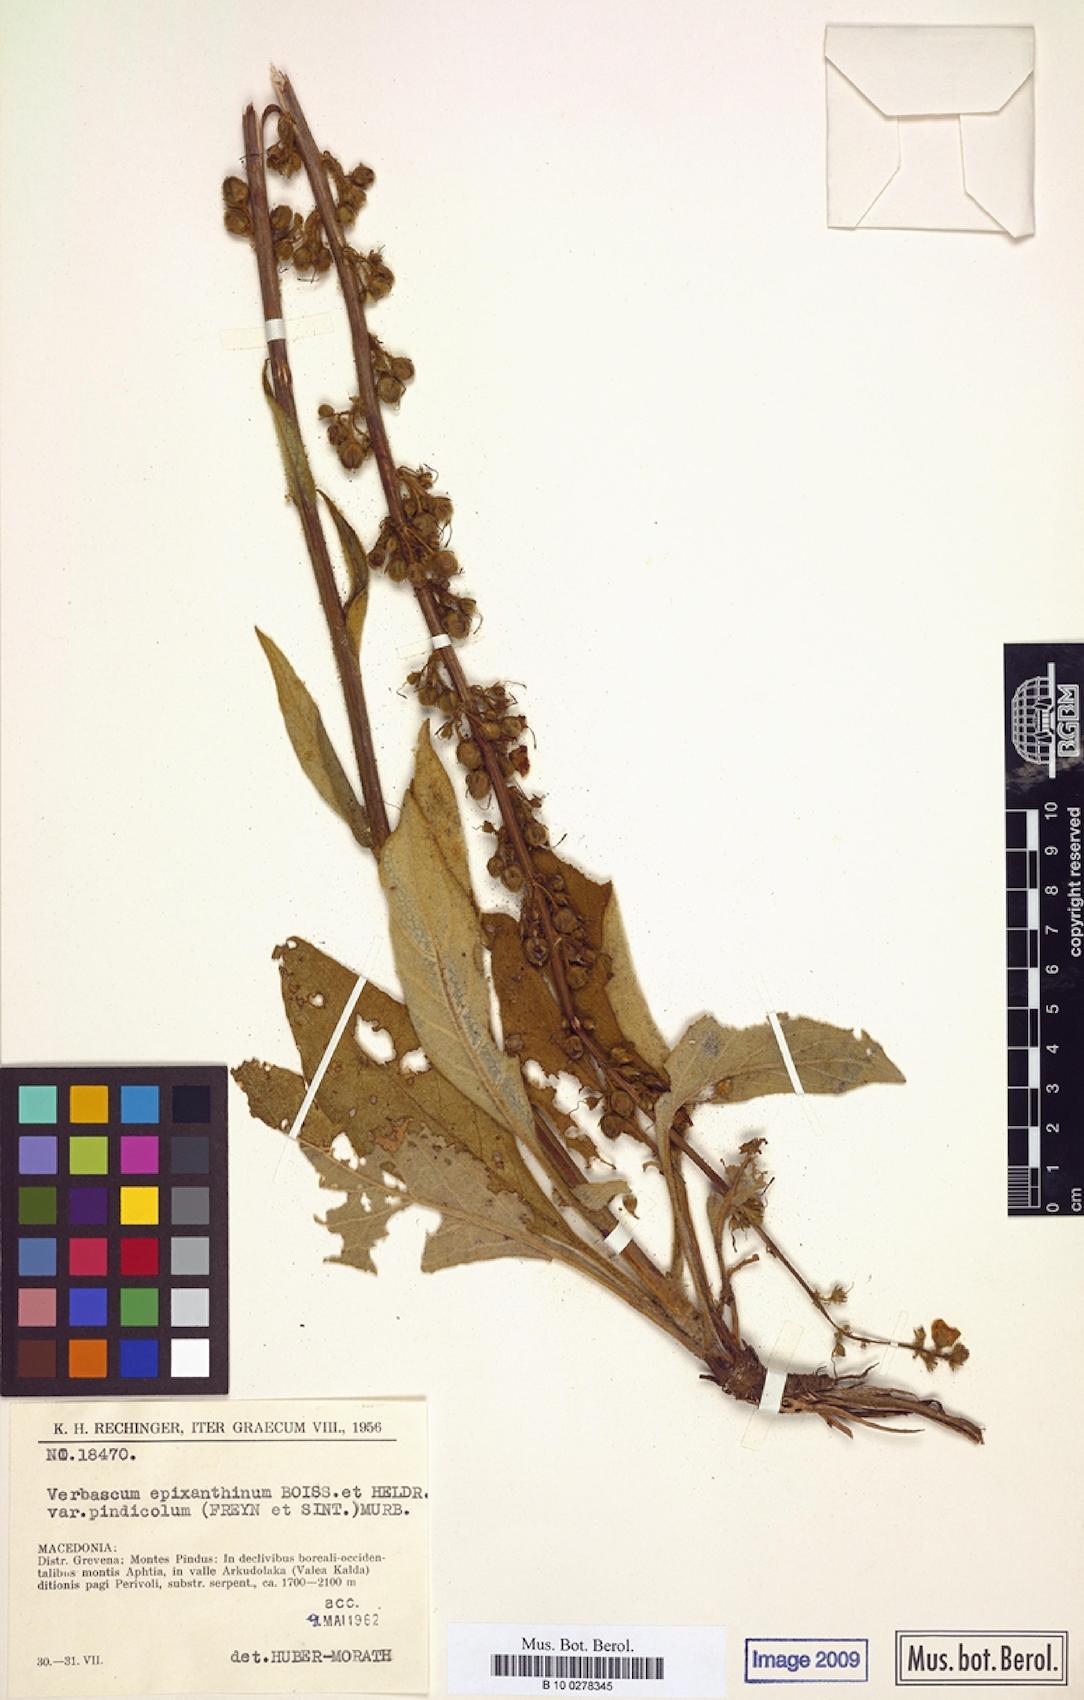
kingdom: Plantae
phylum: Tracheophyta
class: Magnoliopsida
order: Lamiales
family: Scrophulariaceae
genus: Verbascum
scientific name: Verbascum epixanthinum
